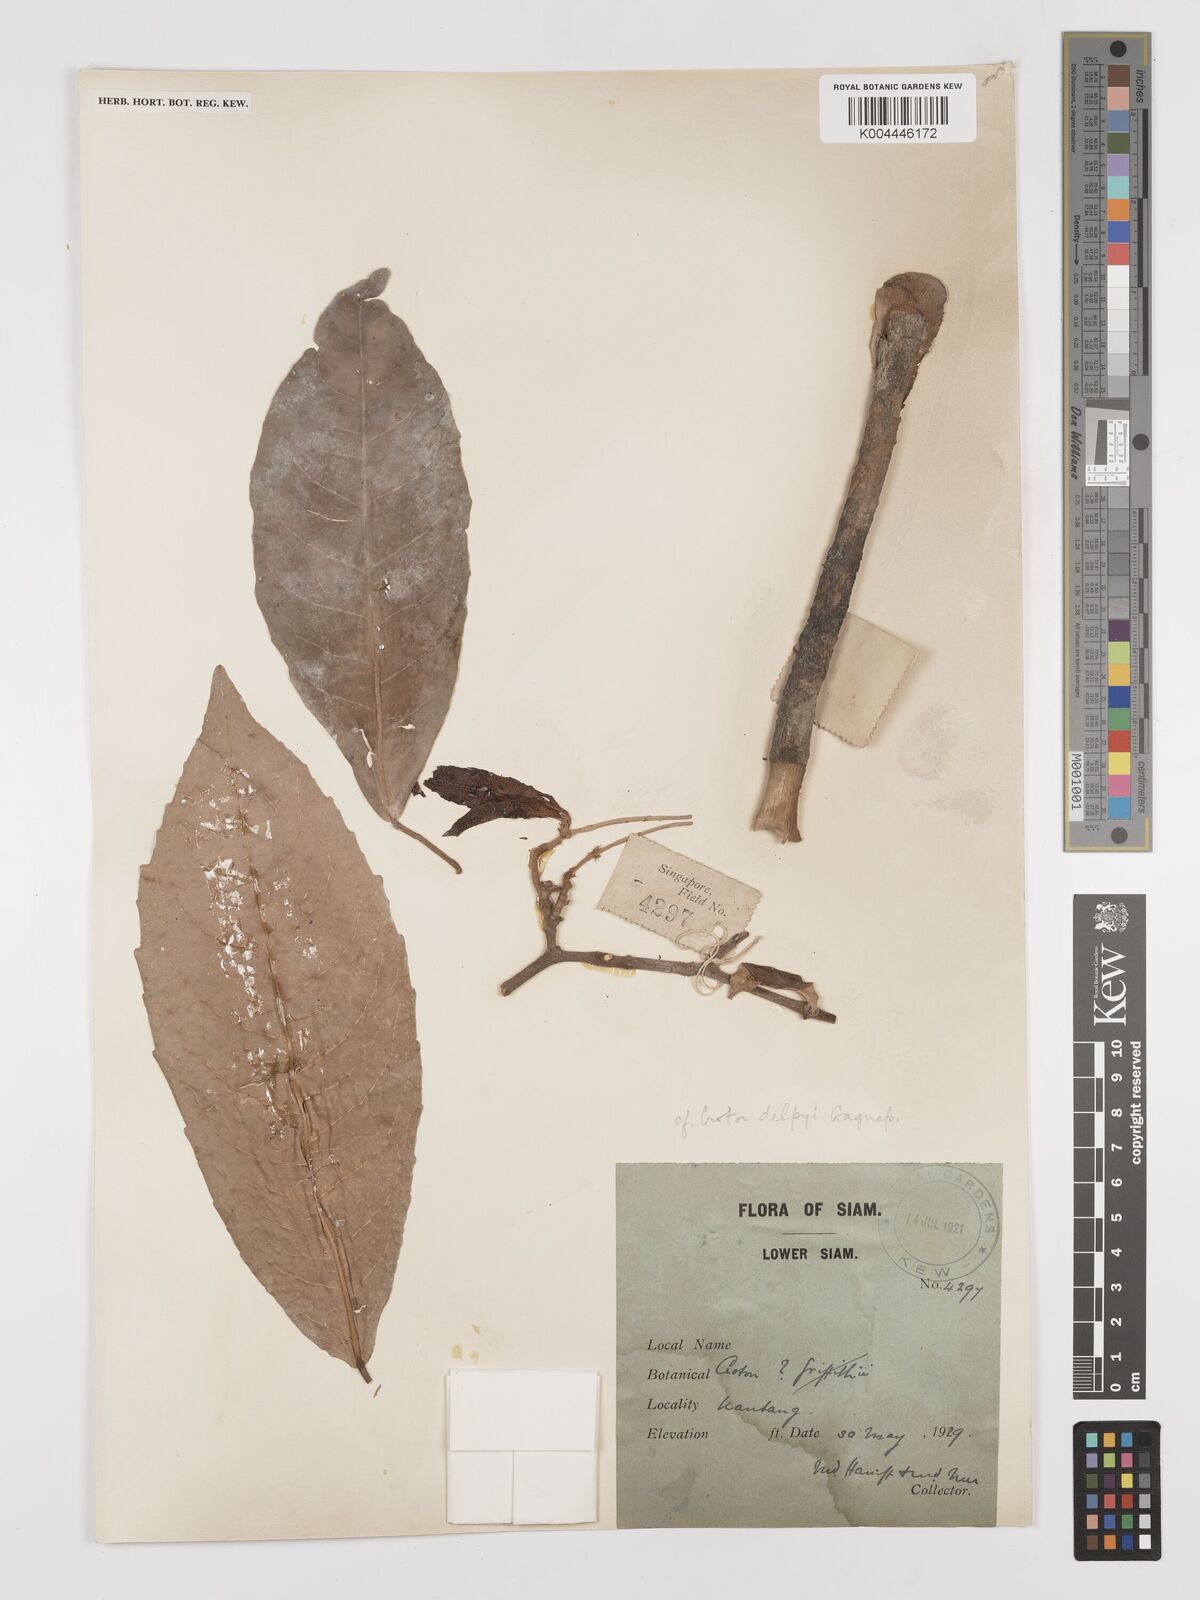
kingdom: Plantae
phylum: Tracheophyta
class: Magnoliopsida
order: Malpighiales
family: Euphorbiaceae
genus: Croton
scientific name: Croton delpyi
